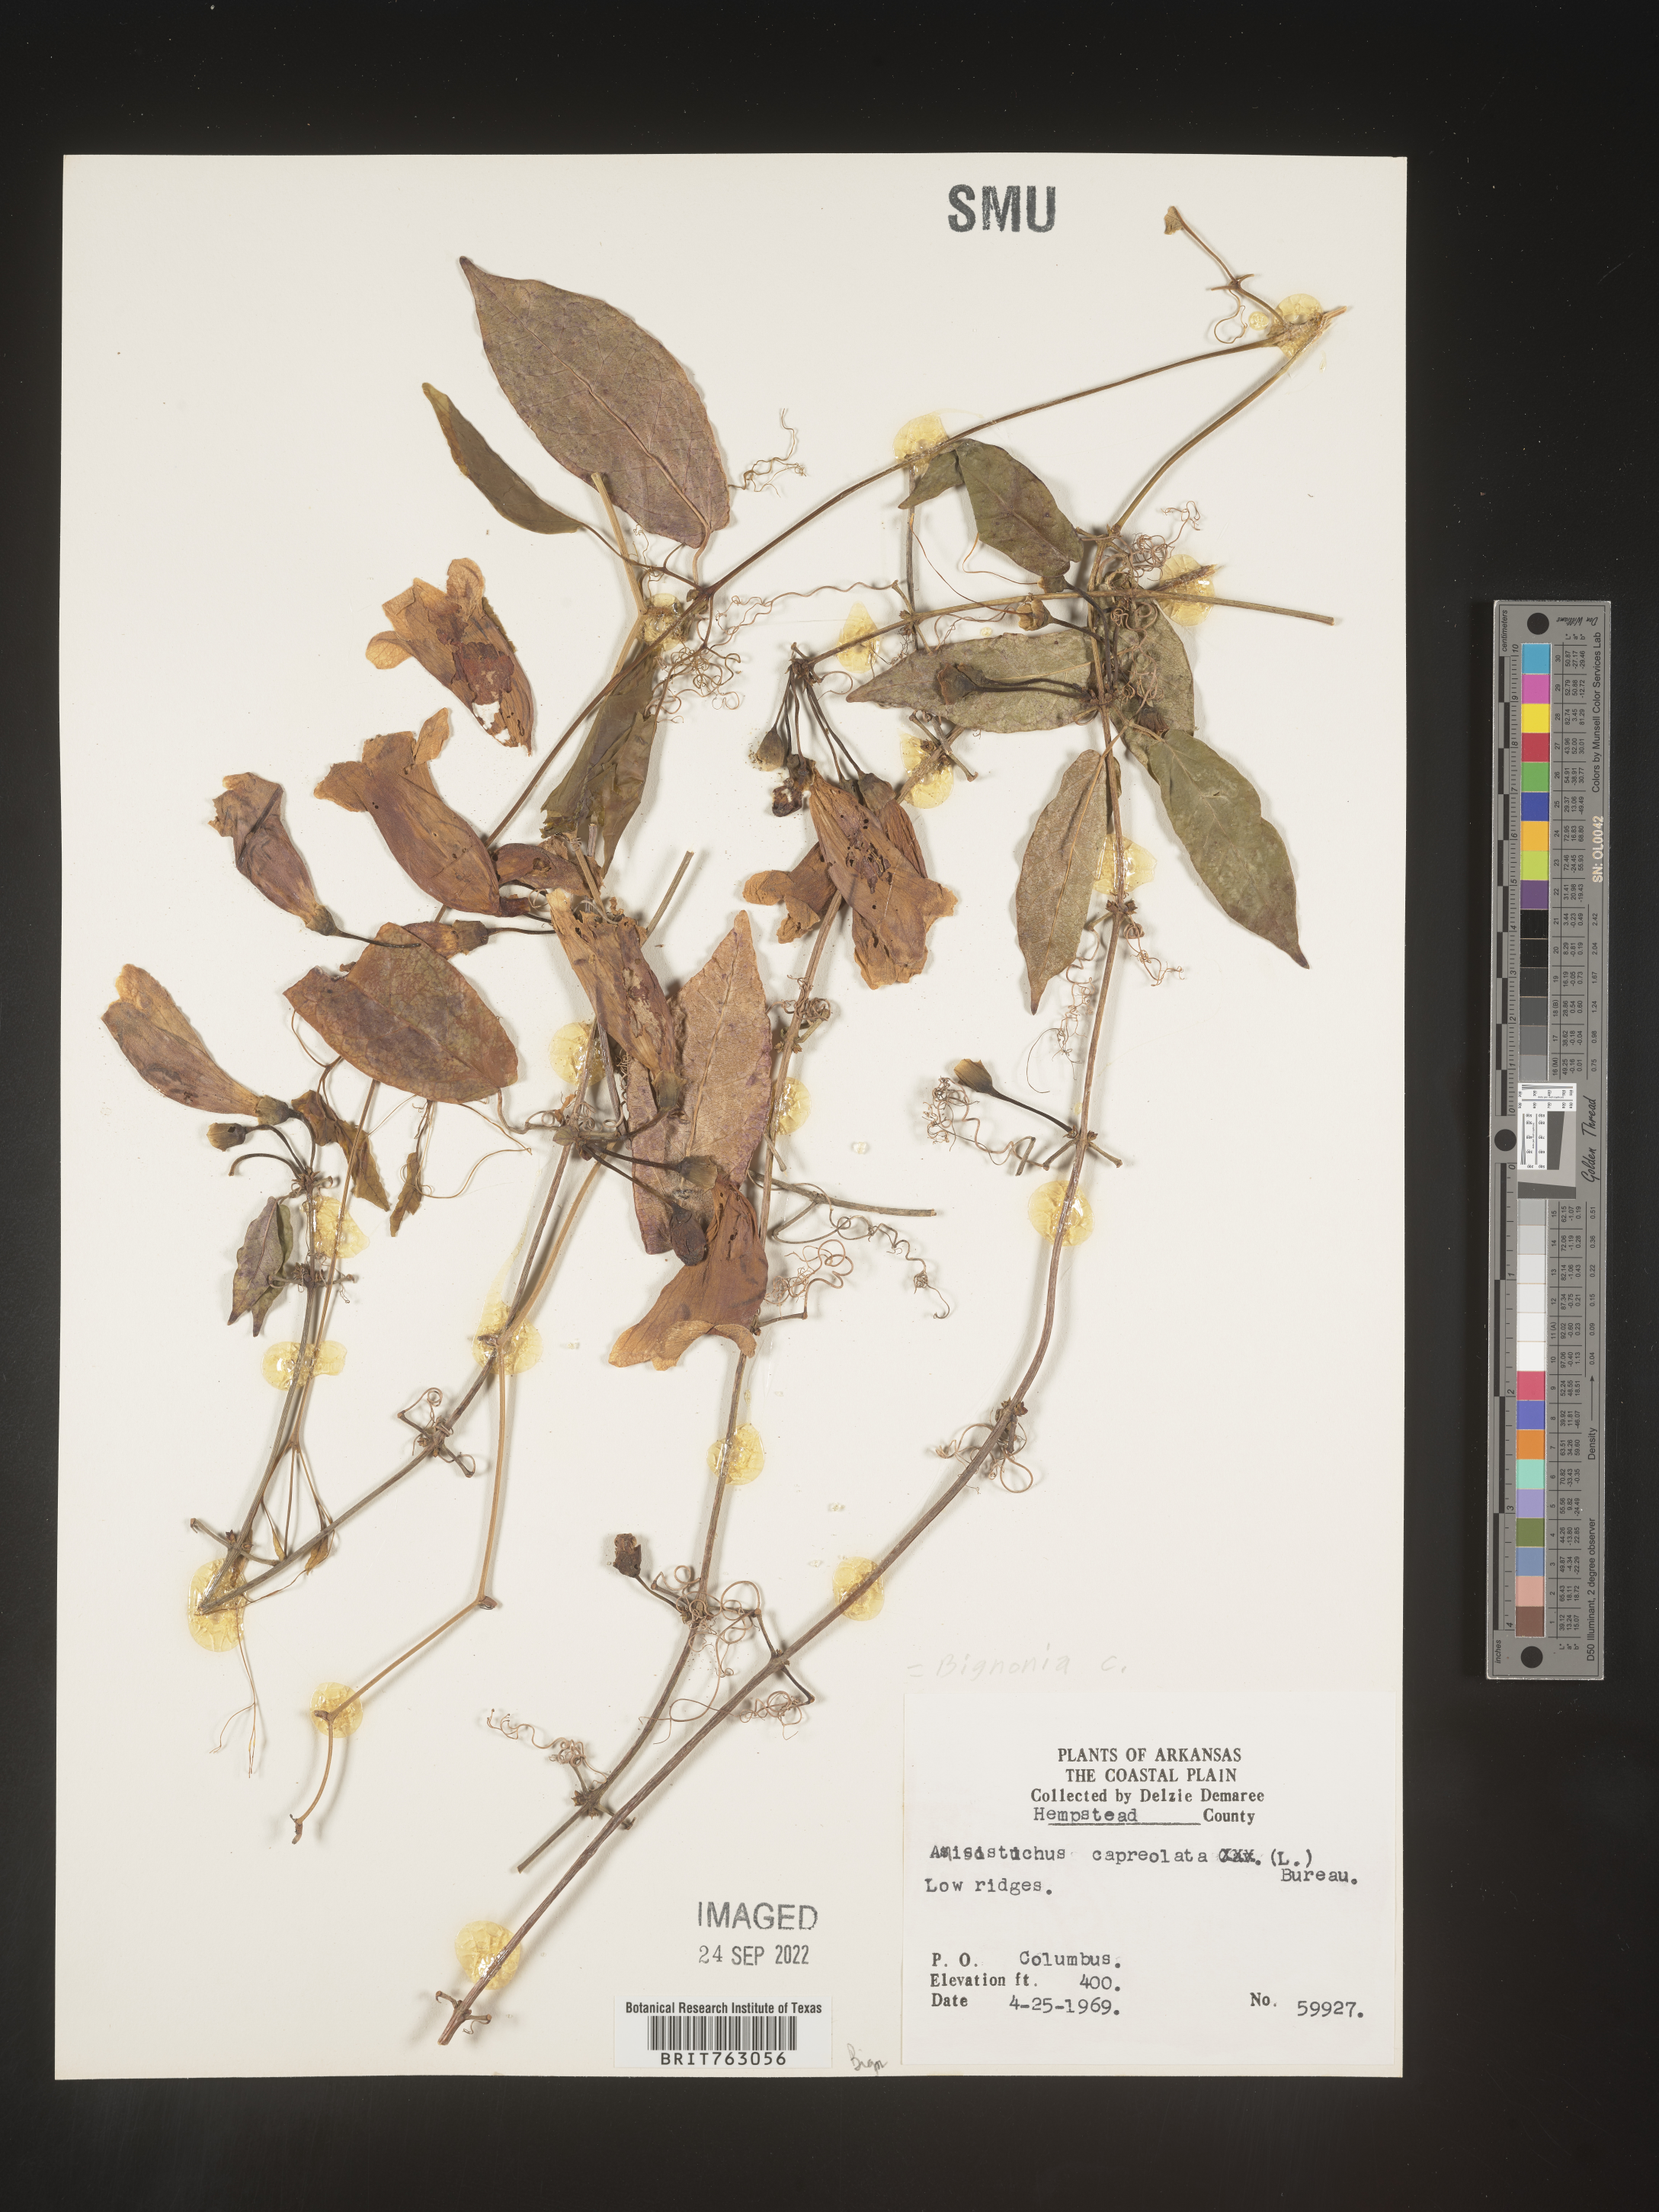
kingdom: Plantae
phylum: Tracheophyta
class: Magnoliopsida
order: Lamiales
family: Bignoniaceae
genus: Bignonia
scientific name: Bignonia capreolata
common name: Crossvine
